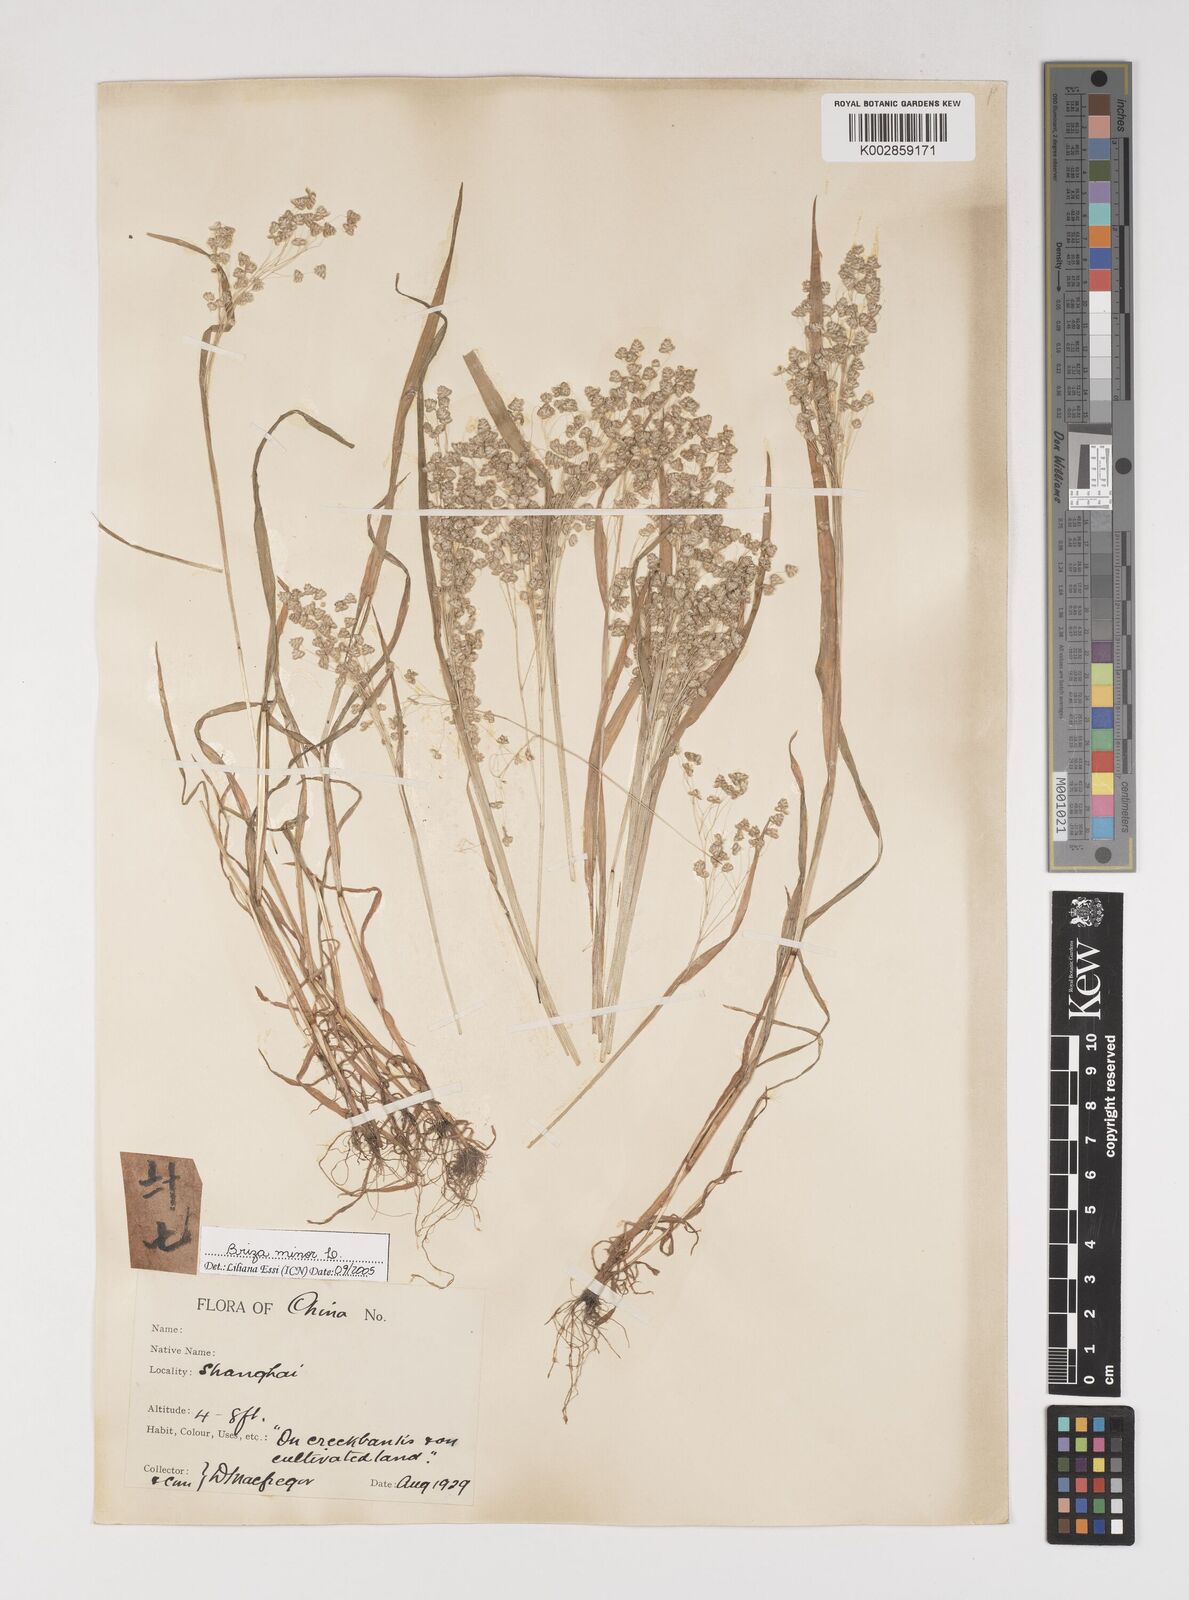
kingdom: Plantae
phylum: Tracheophyta
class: Liliopsida
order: Poales
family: Poaceae
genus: Briza
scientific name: Briza minor
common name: Lesser quaking-grass
